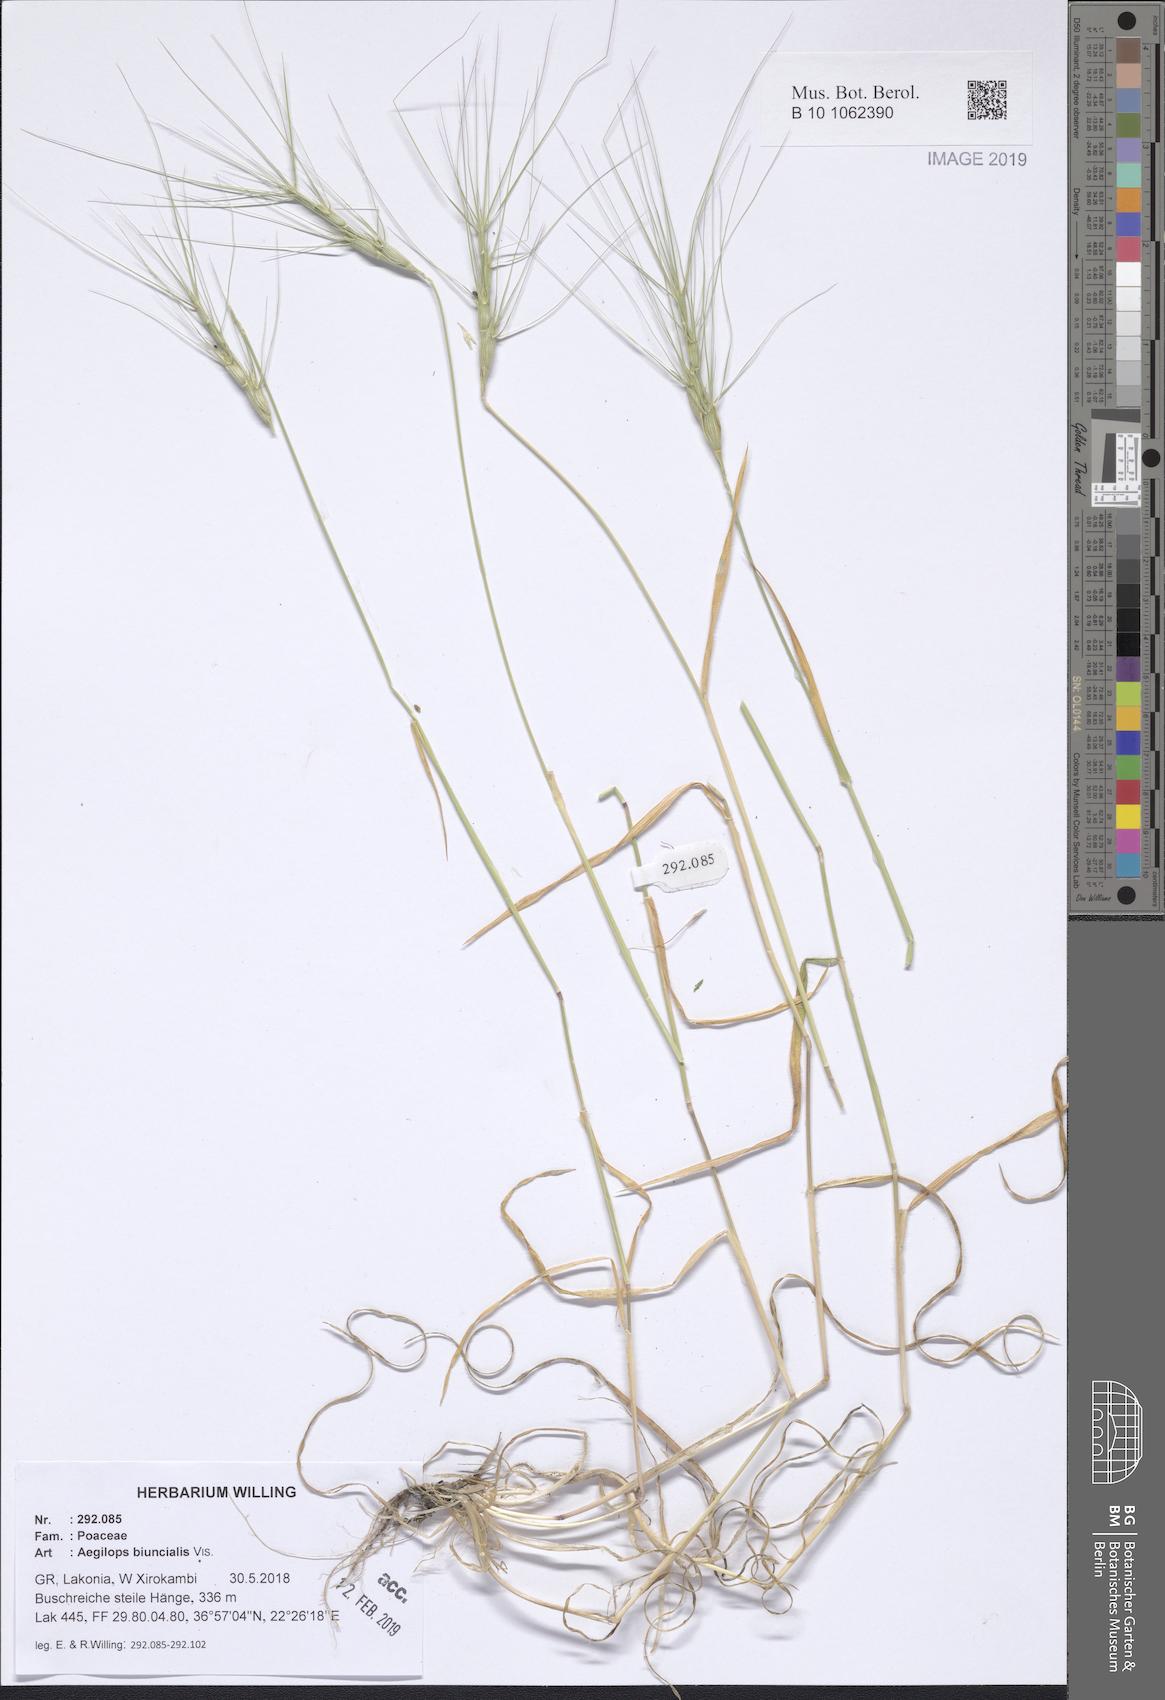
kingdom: Plantae
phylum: Tracheophyta
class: Liliopsida
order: Poales
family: Poaceae
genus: Aegilops
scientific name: Aegilops biuncialis
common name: Mediterranean aegilops
